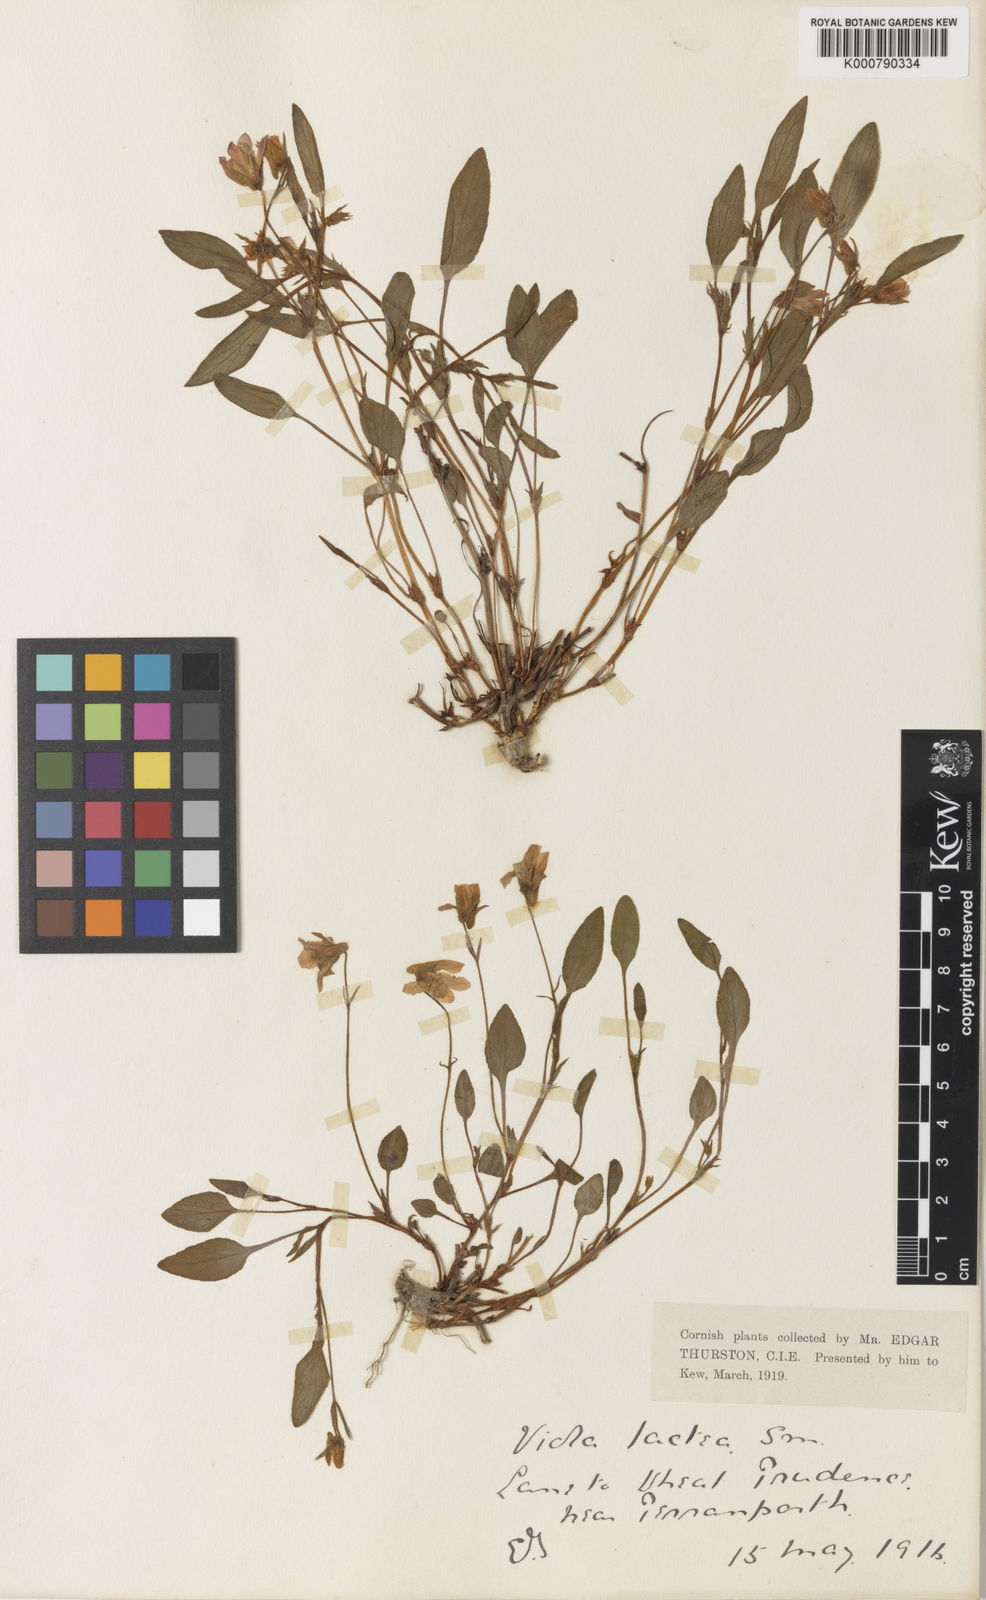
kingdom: Plantae
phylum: Tracheophyta
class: Magnoliopsida
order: Malpighiales
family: Violaceae
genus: Viola
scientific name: Viola lactea
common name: Pale dog-violet
